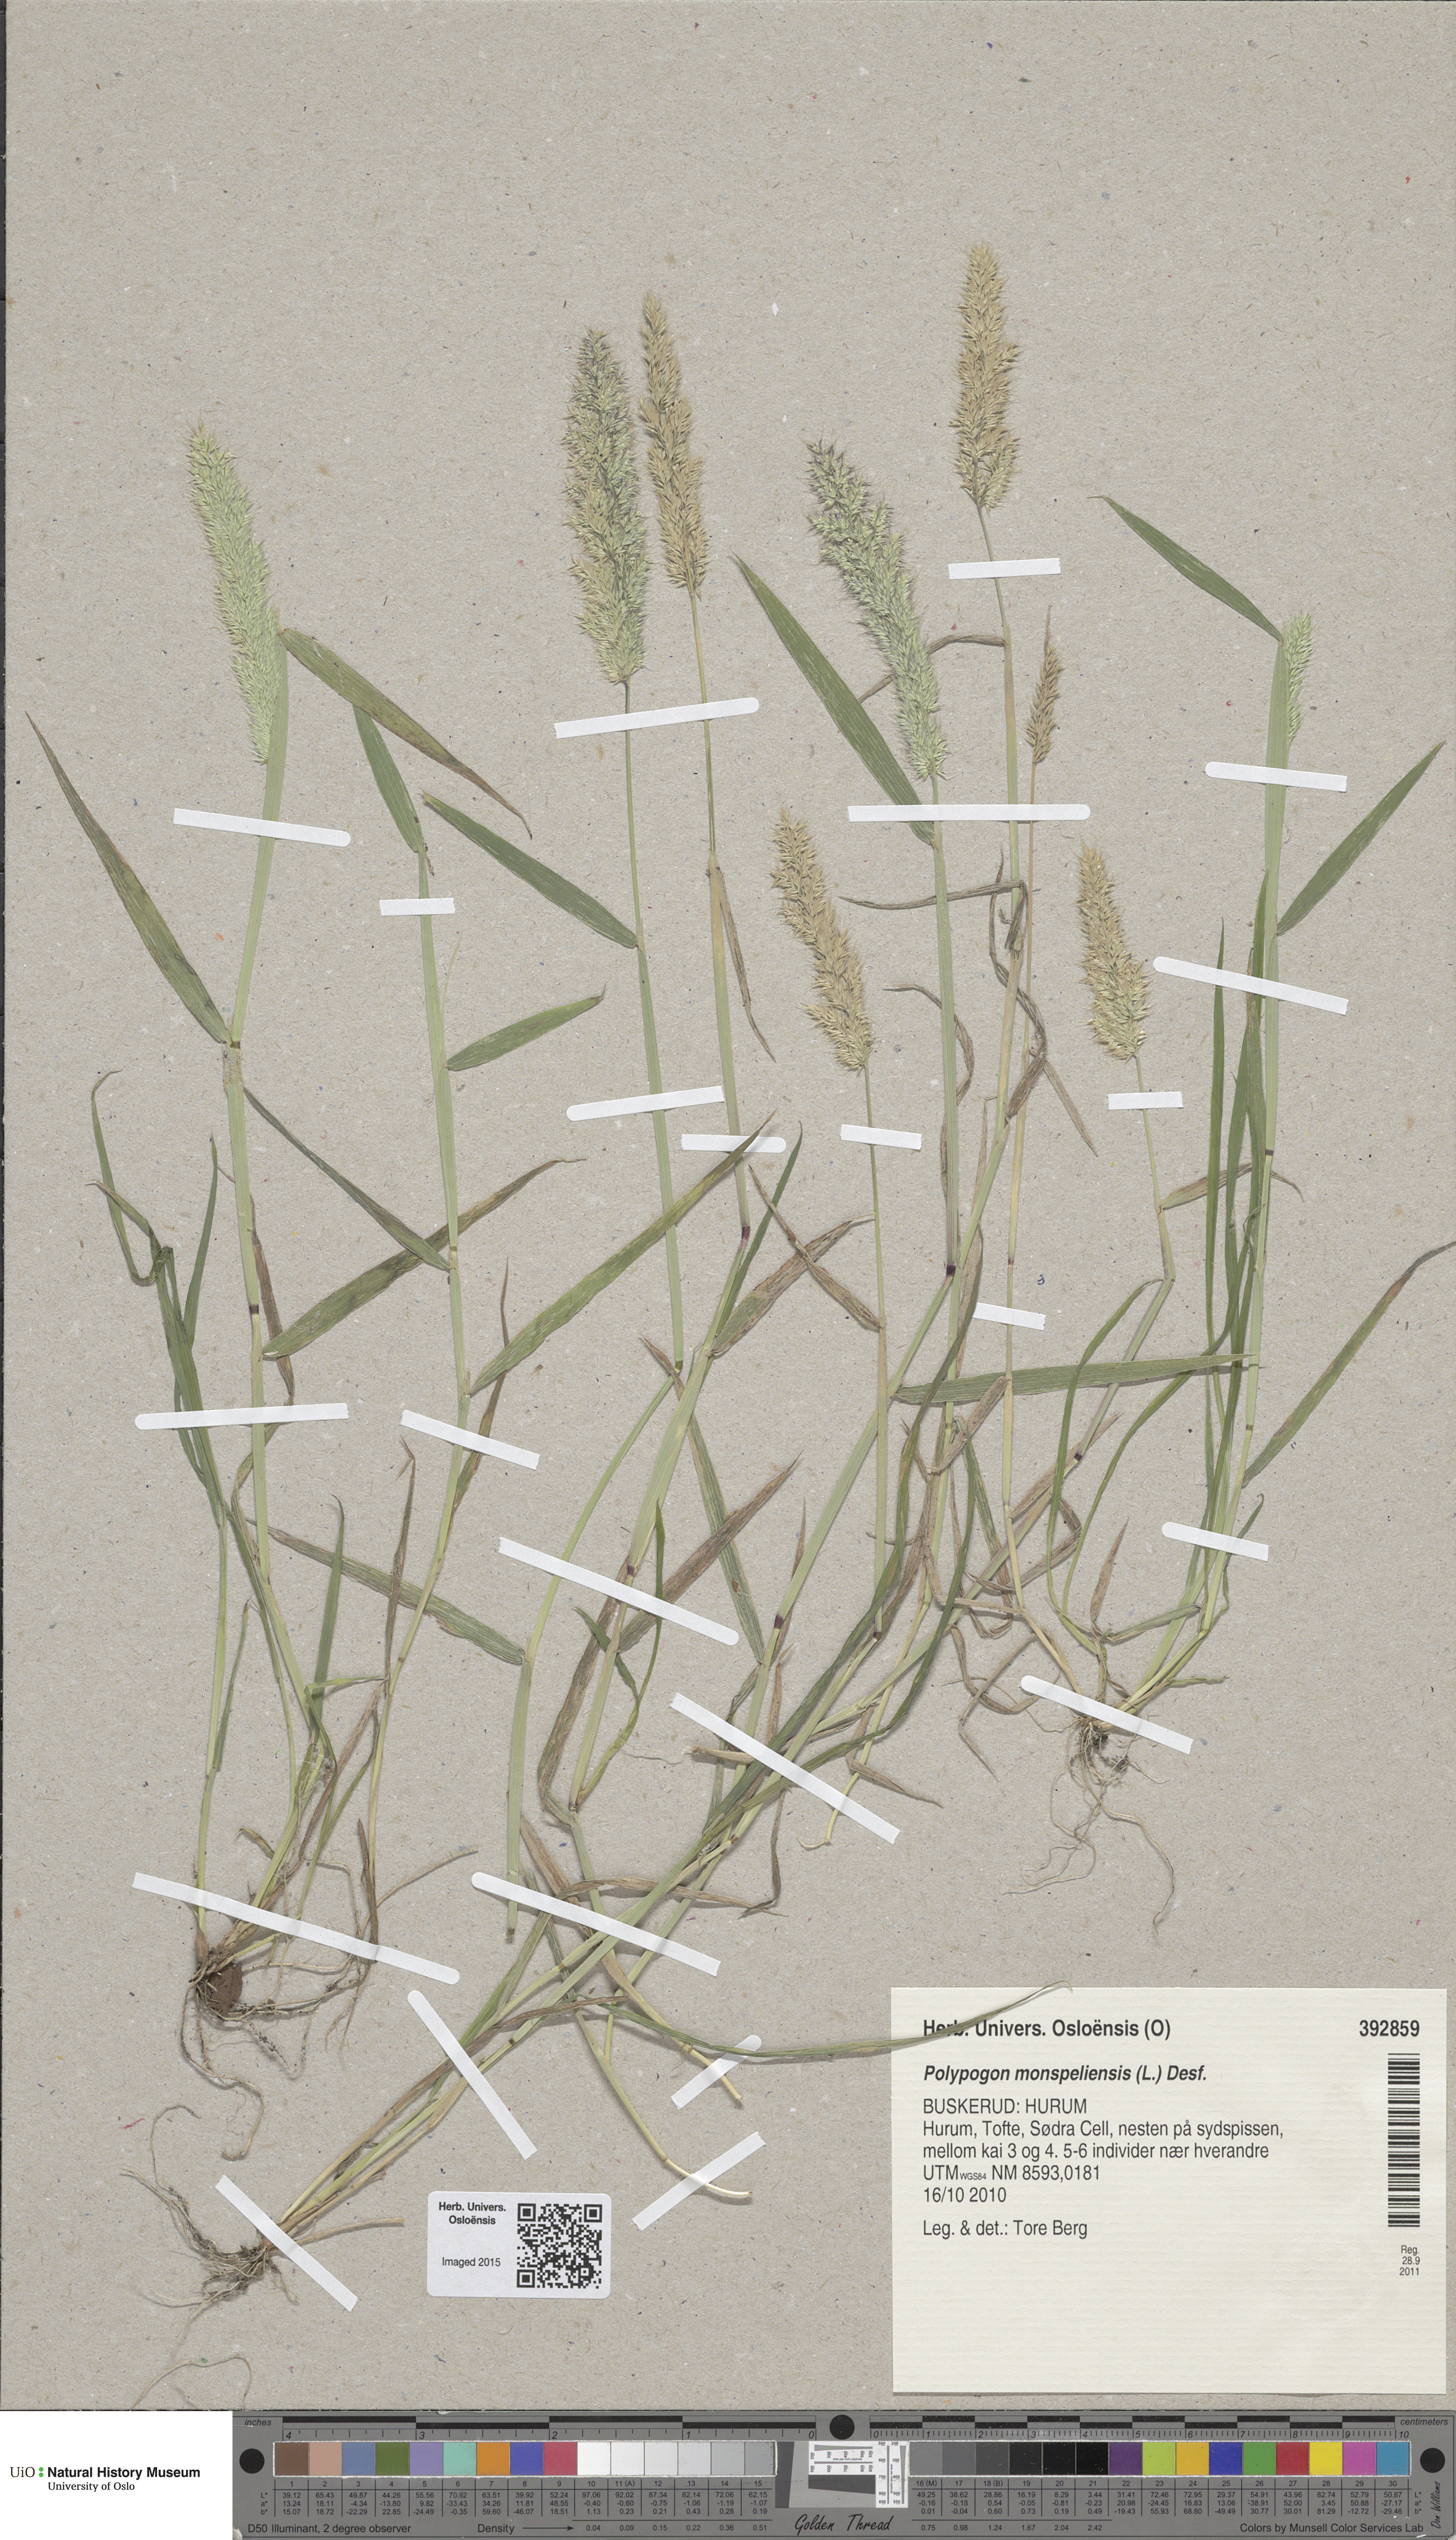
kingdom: Plantae
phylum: Tracheophyta
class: Liliopsida
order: Poales
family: Poaceae
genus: Polypogon
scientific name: Polypogon monspeliensis
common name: Annual rabbitsfoot grass
